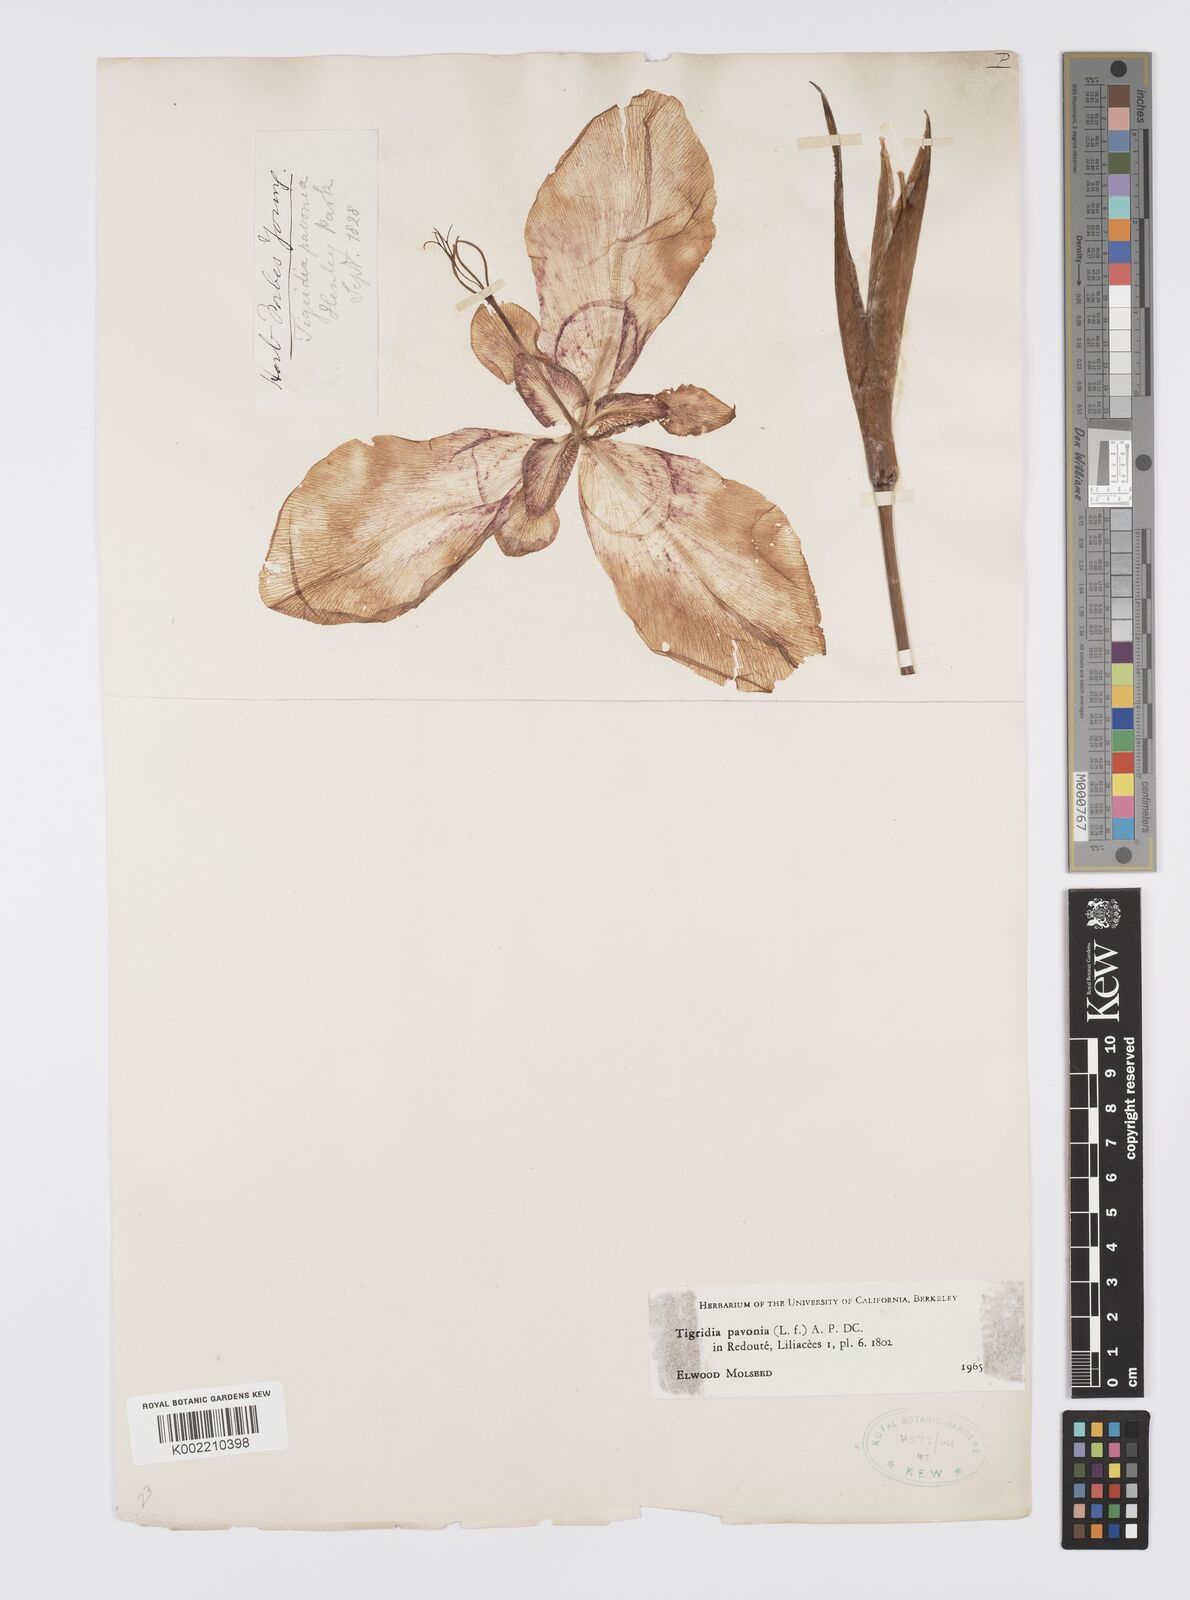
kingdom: Plantae
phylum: Tracheophyta
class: Liliopsida
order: Asparagales
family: Iridaceae
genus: Tigridia
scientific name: Tigridia pavonia
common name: Peacock-flower
